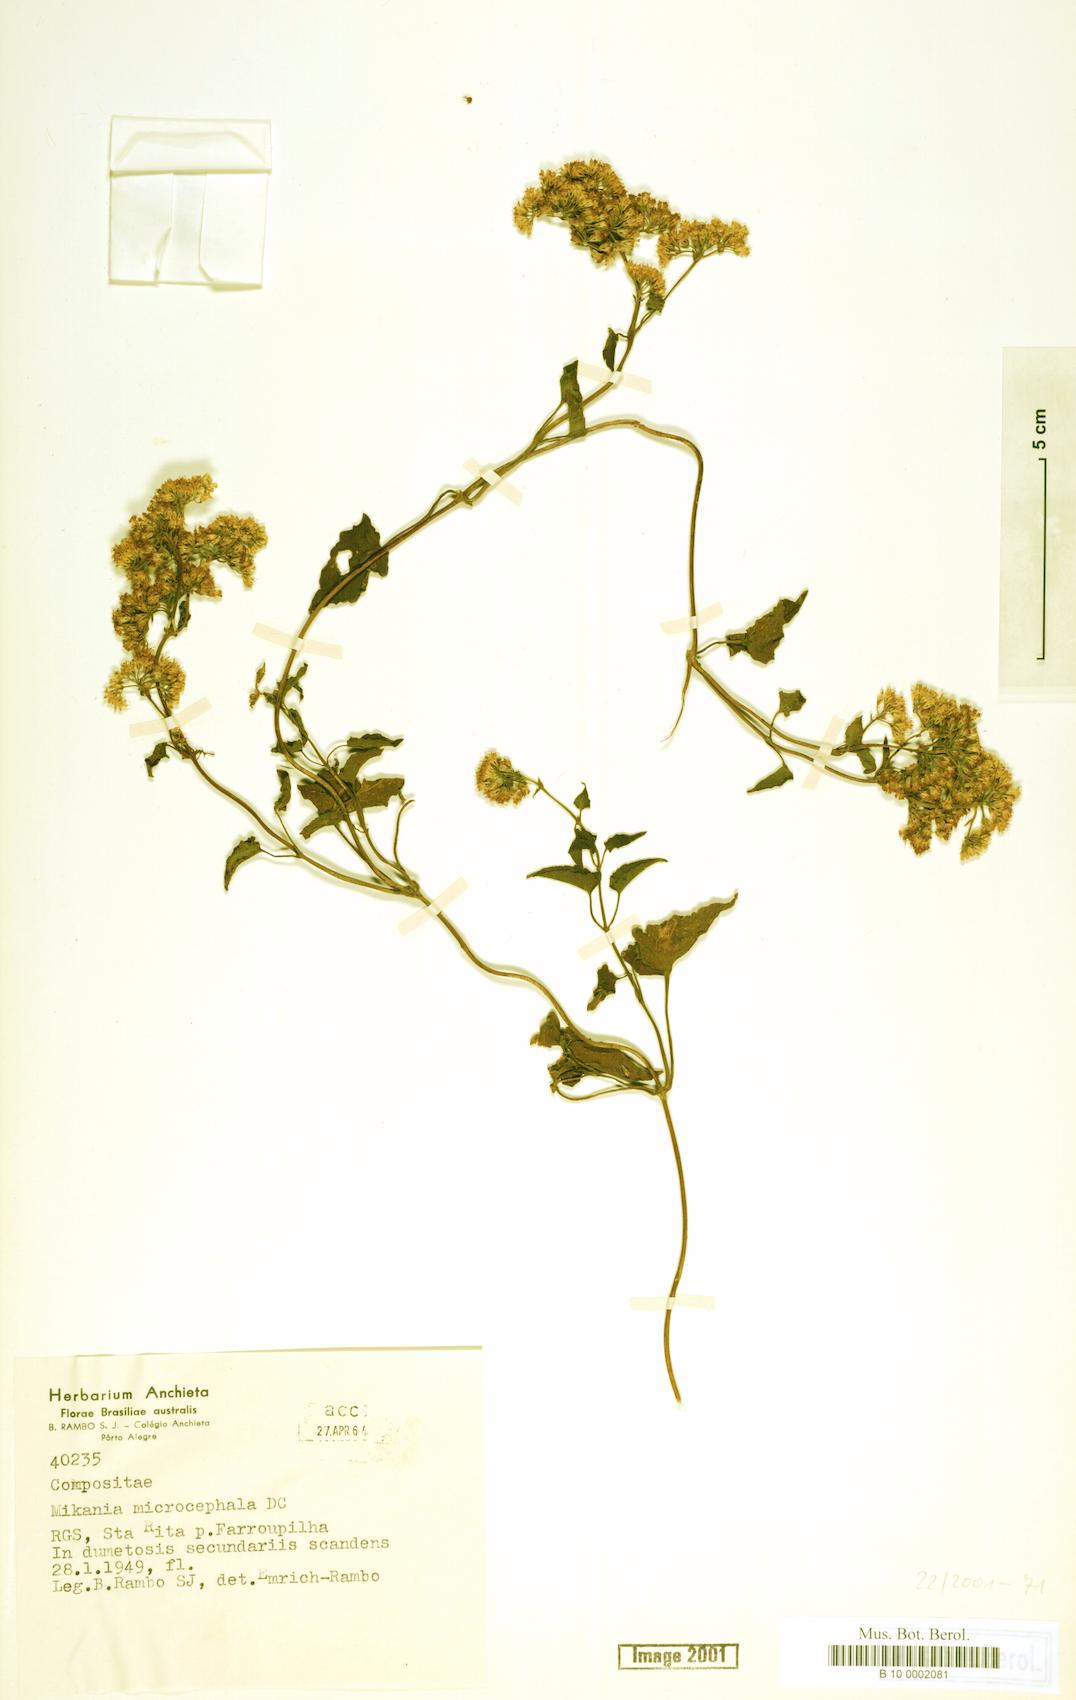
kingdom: Plantae
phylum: Tracheophyta
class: Magnoliopsida
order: Asterales
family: Asteraceae
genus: Mikania
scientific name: Mikania microcephala
